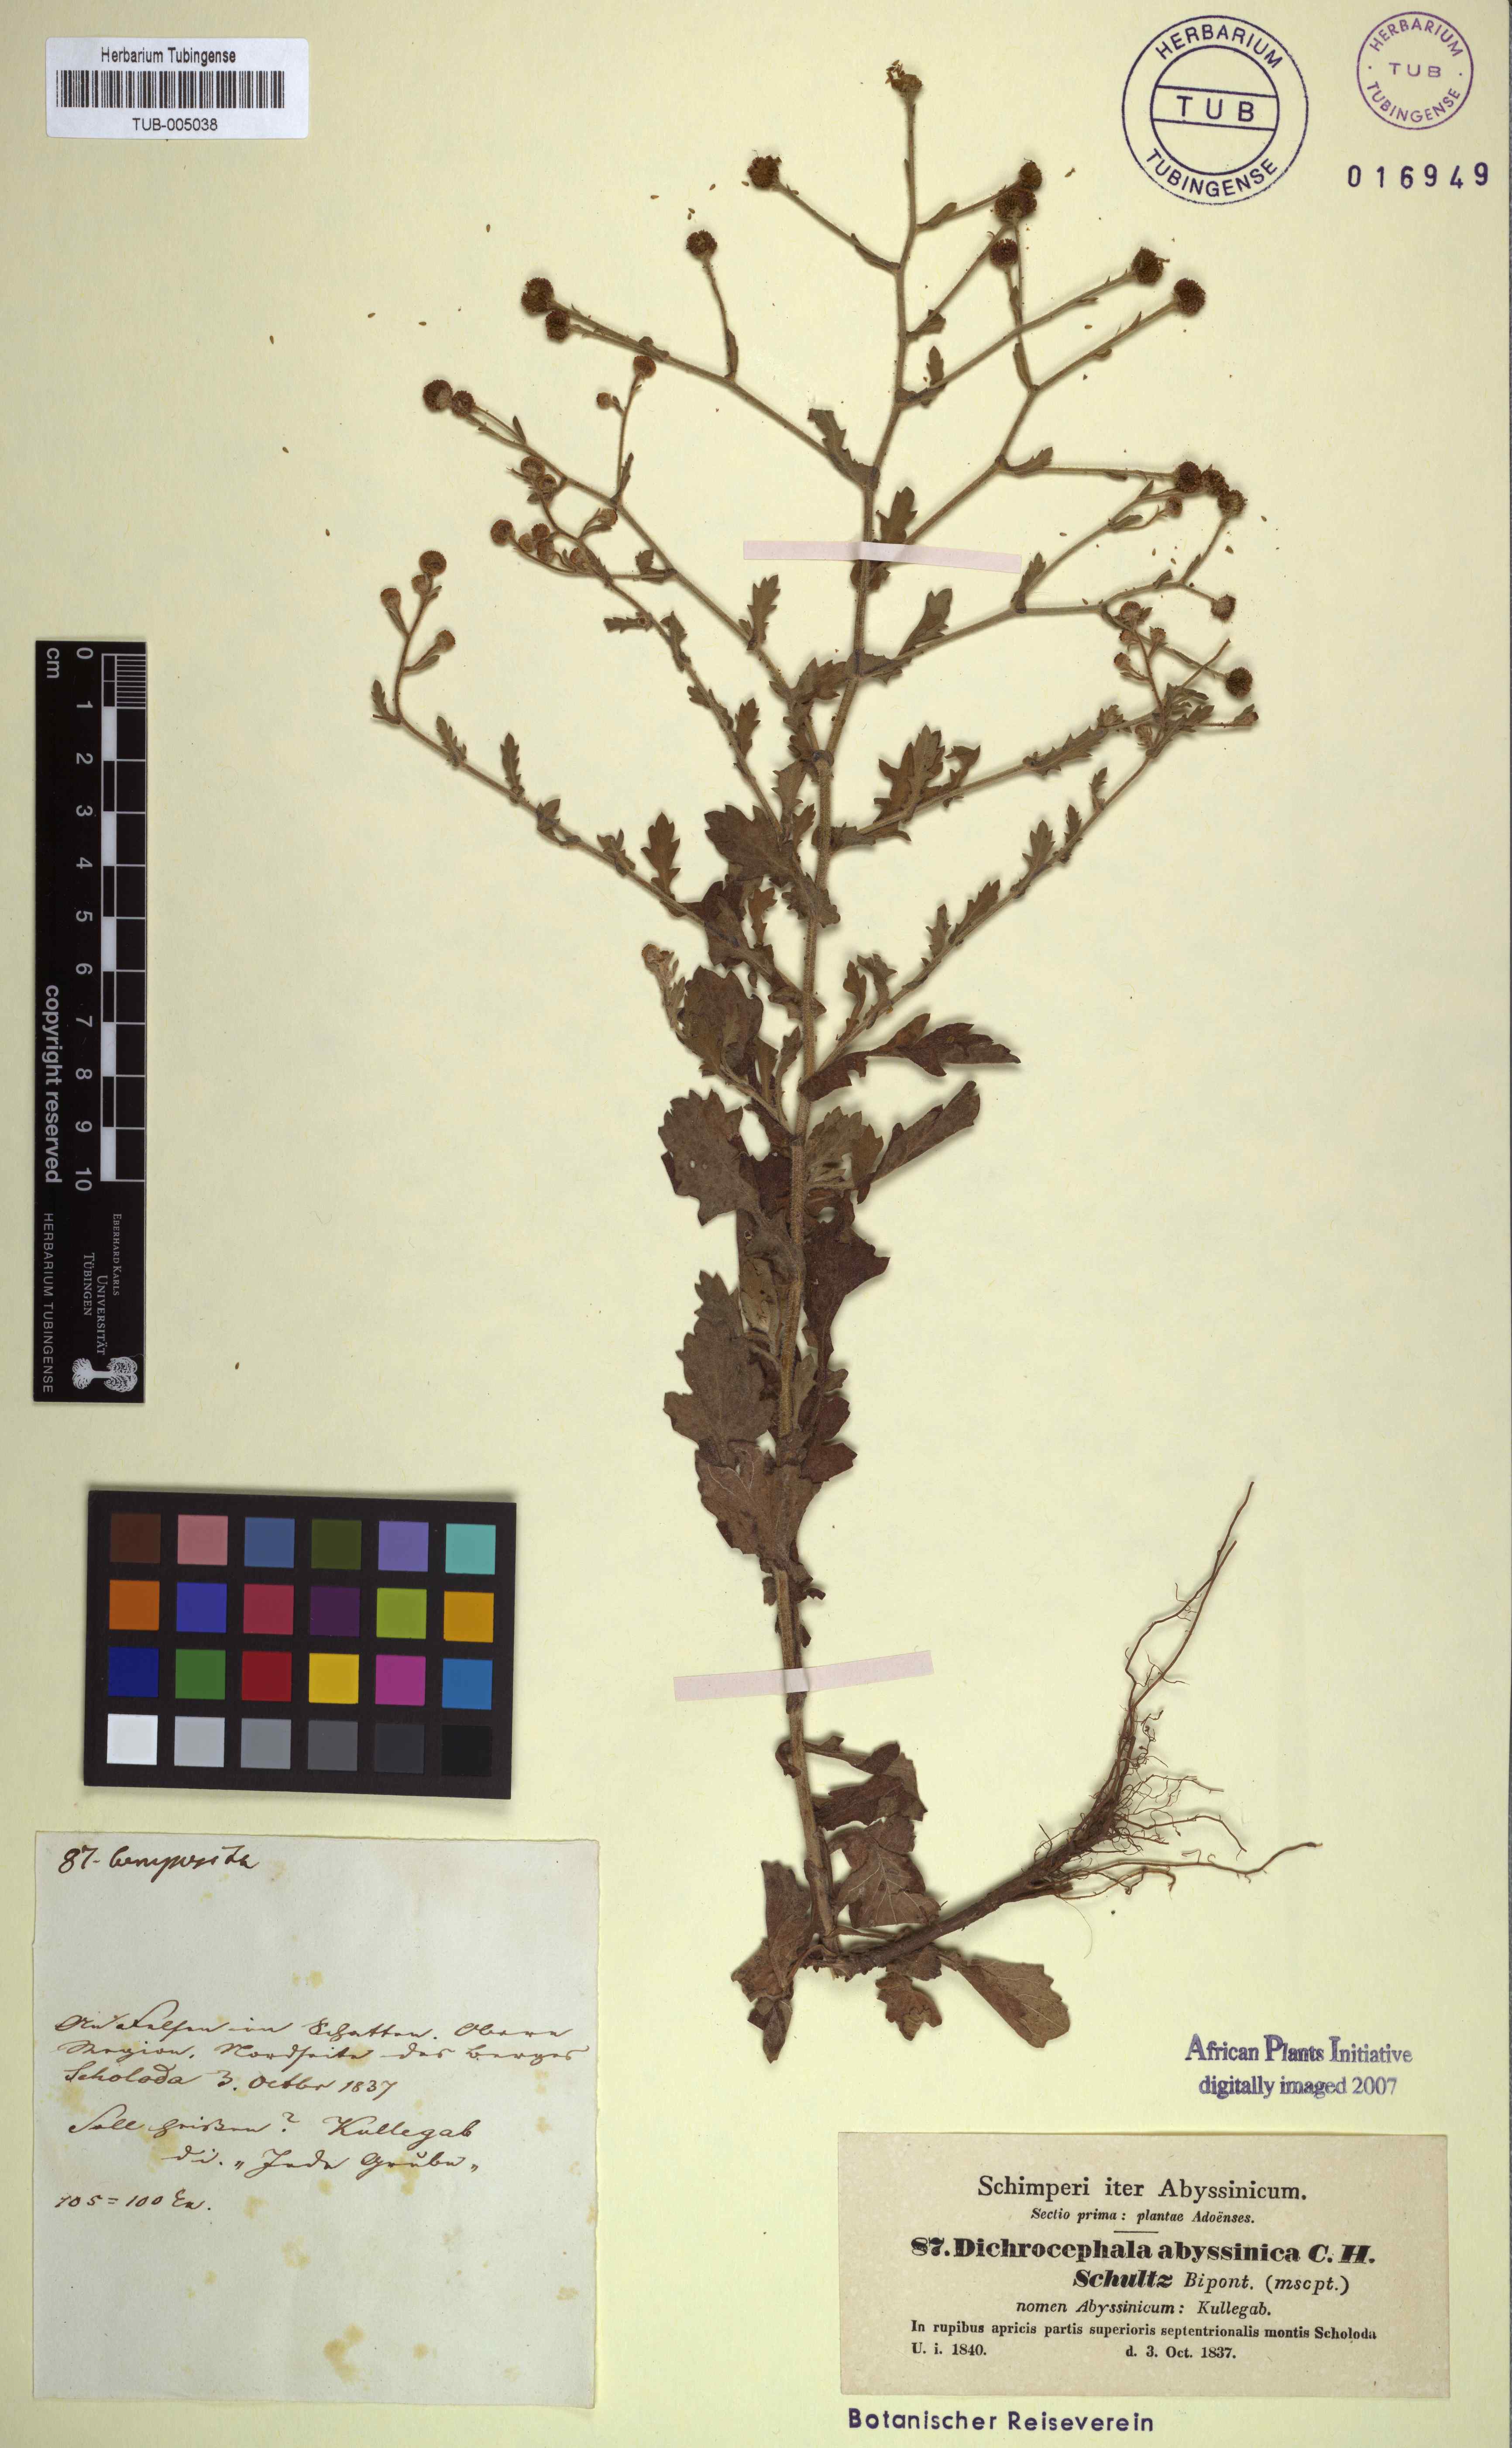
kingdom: Plantae
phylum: Tracheophyta
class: Magnoliopsida
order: Asterales
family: Asteraceae
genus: Dichrocephala
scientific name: Dichrocephala integrifolia
